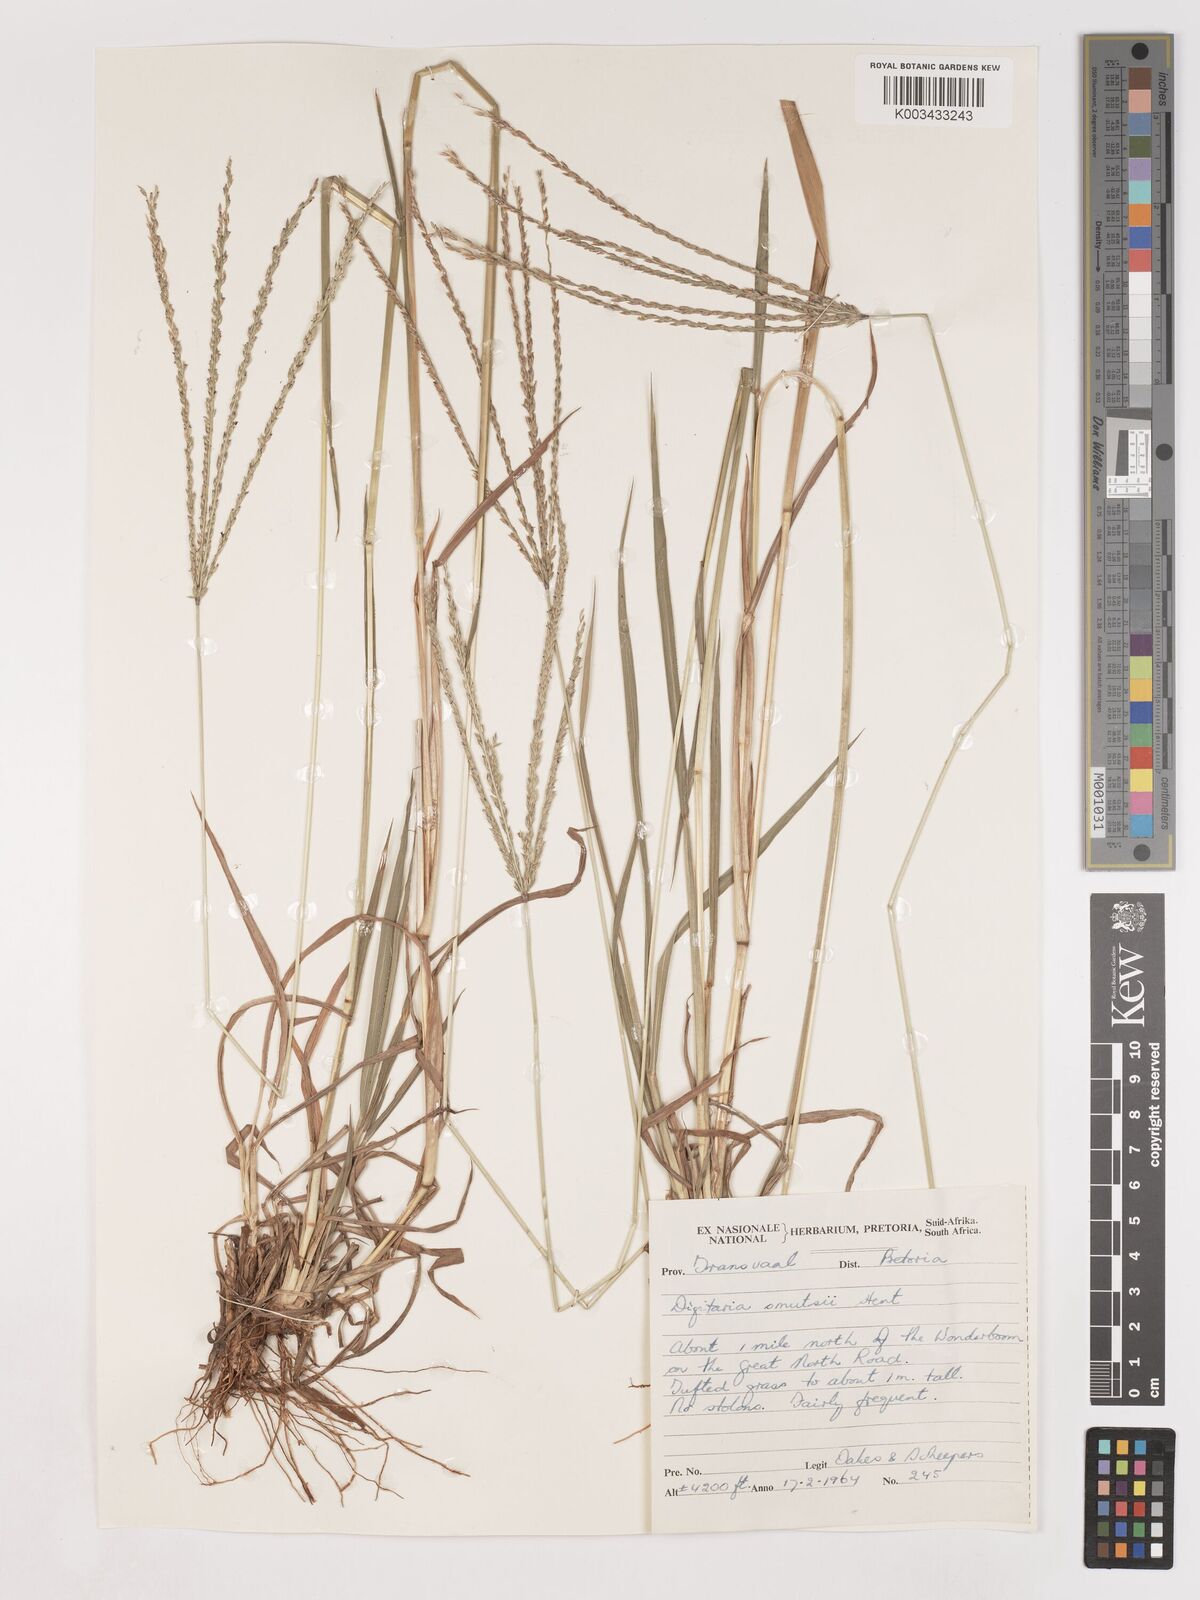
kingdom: Plantae
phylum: Tracheophyta
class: Liliopsida
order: Poales
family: Poaceae
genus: Digitaria
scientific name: Digitaria eriantha
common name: Digitgrass
